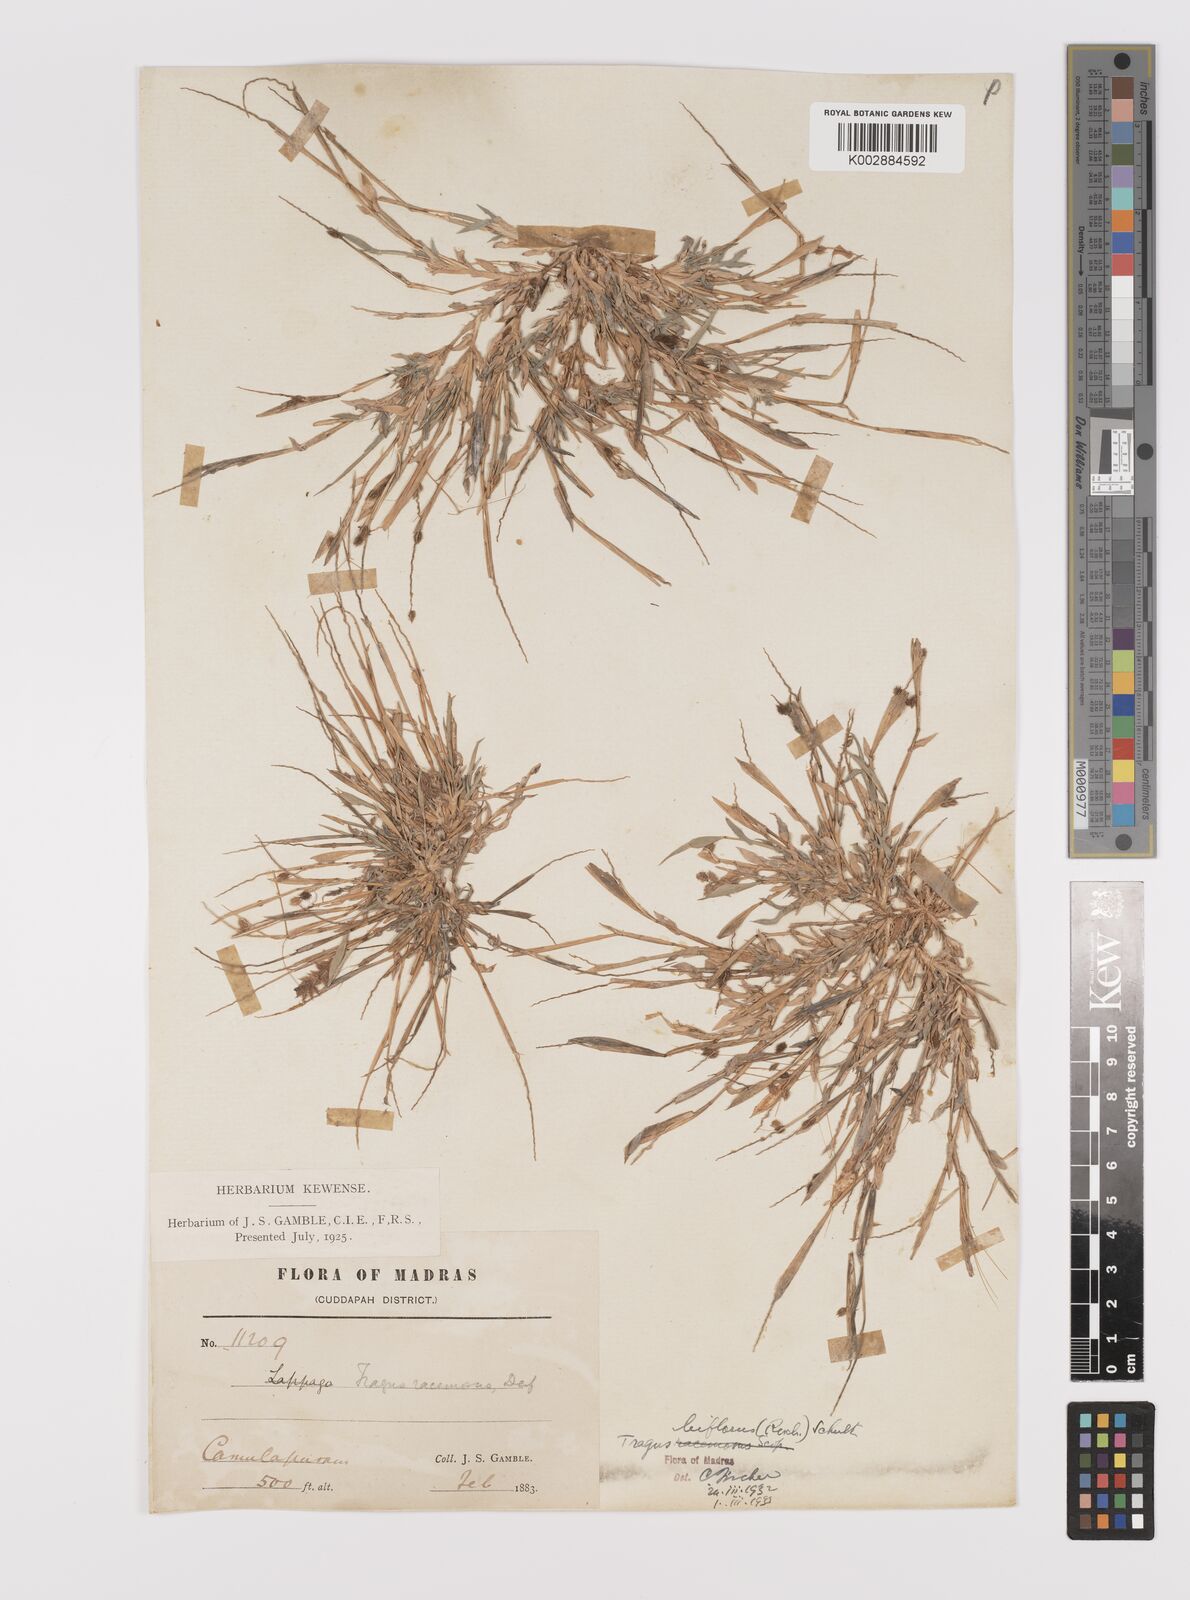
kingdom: Plantae
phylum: Tracheophyta
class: Liliopsida
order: Poales
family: Poaceae
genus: Tragus
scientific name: Tragus mongolorum
